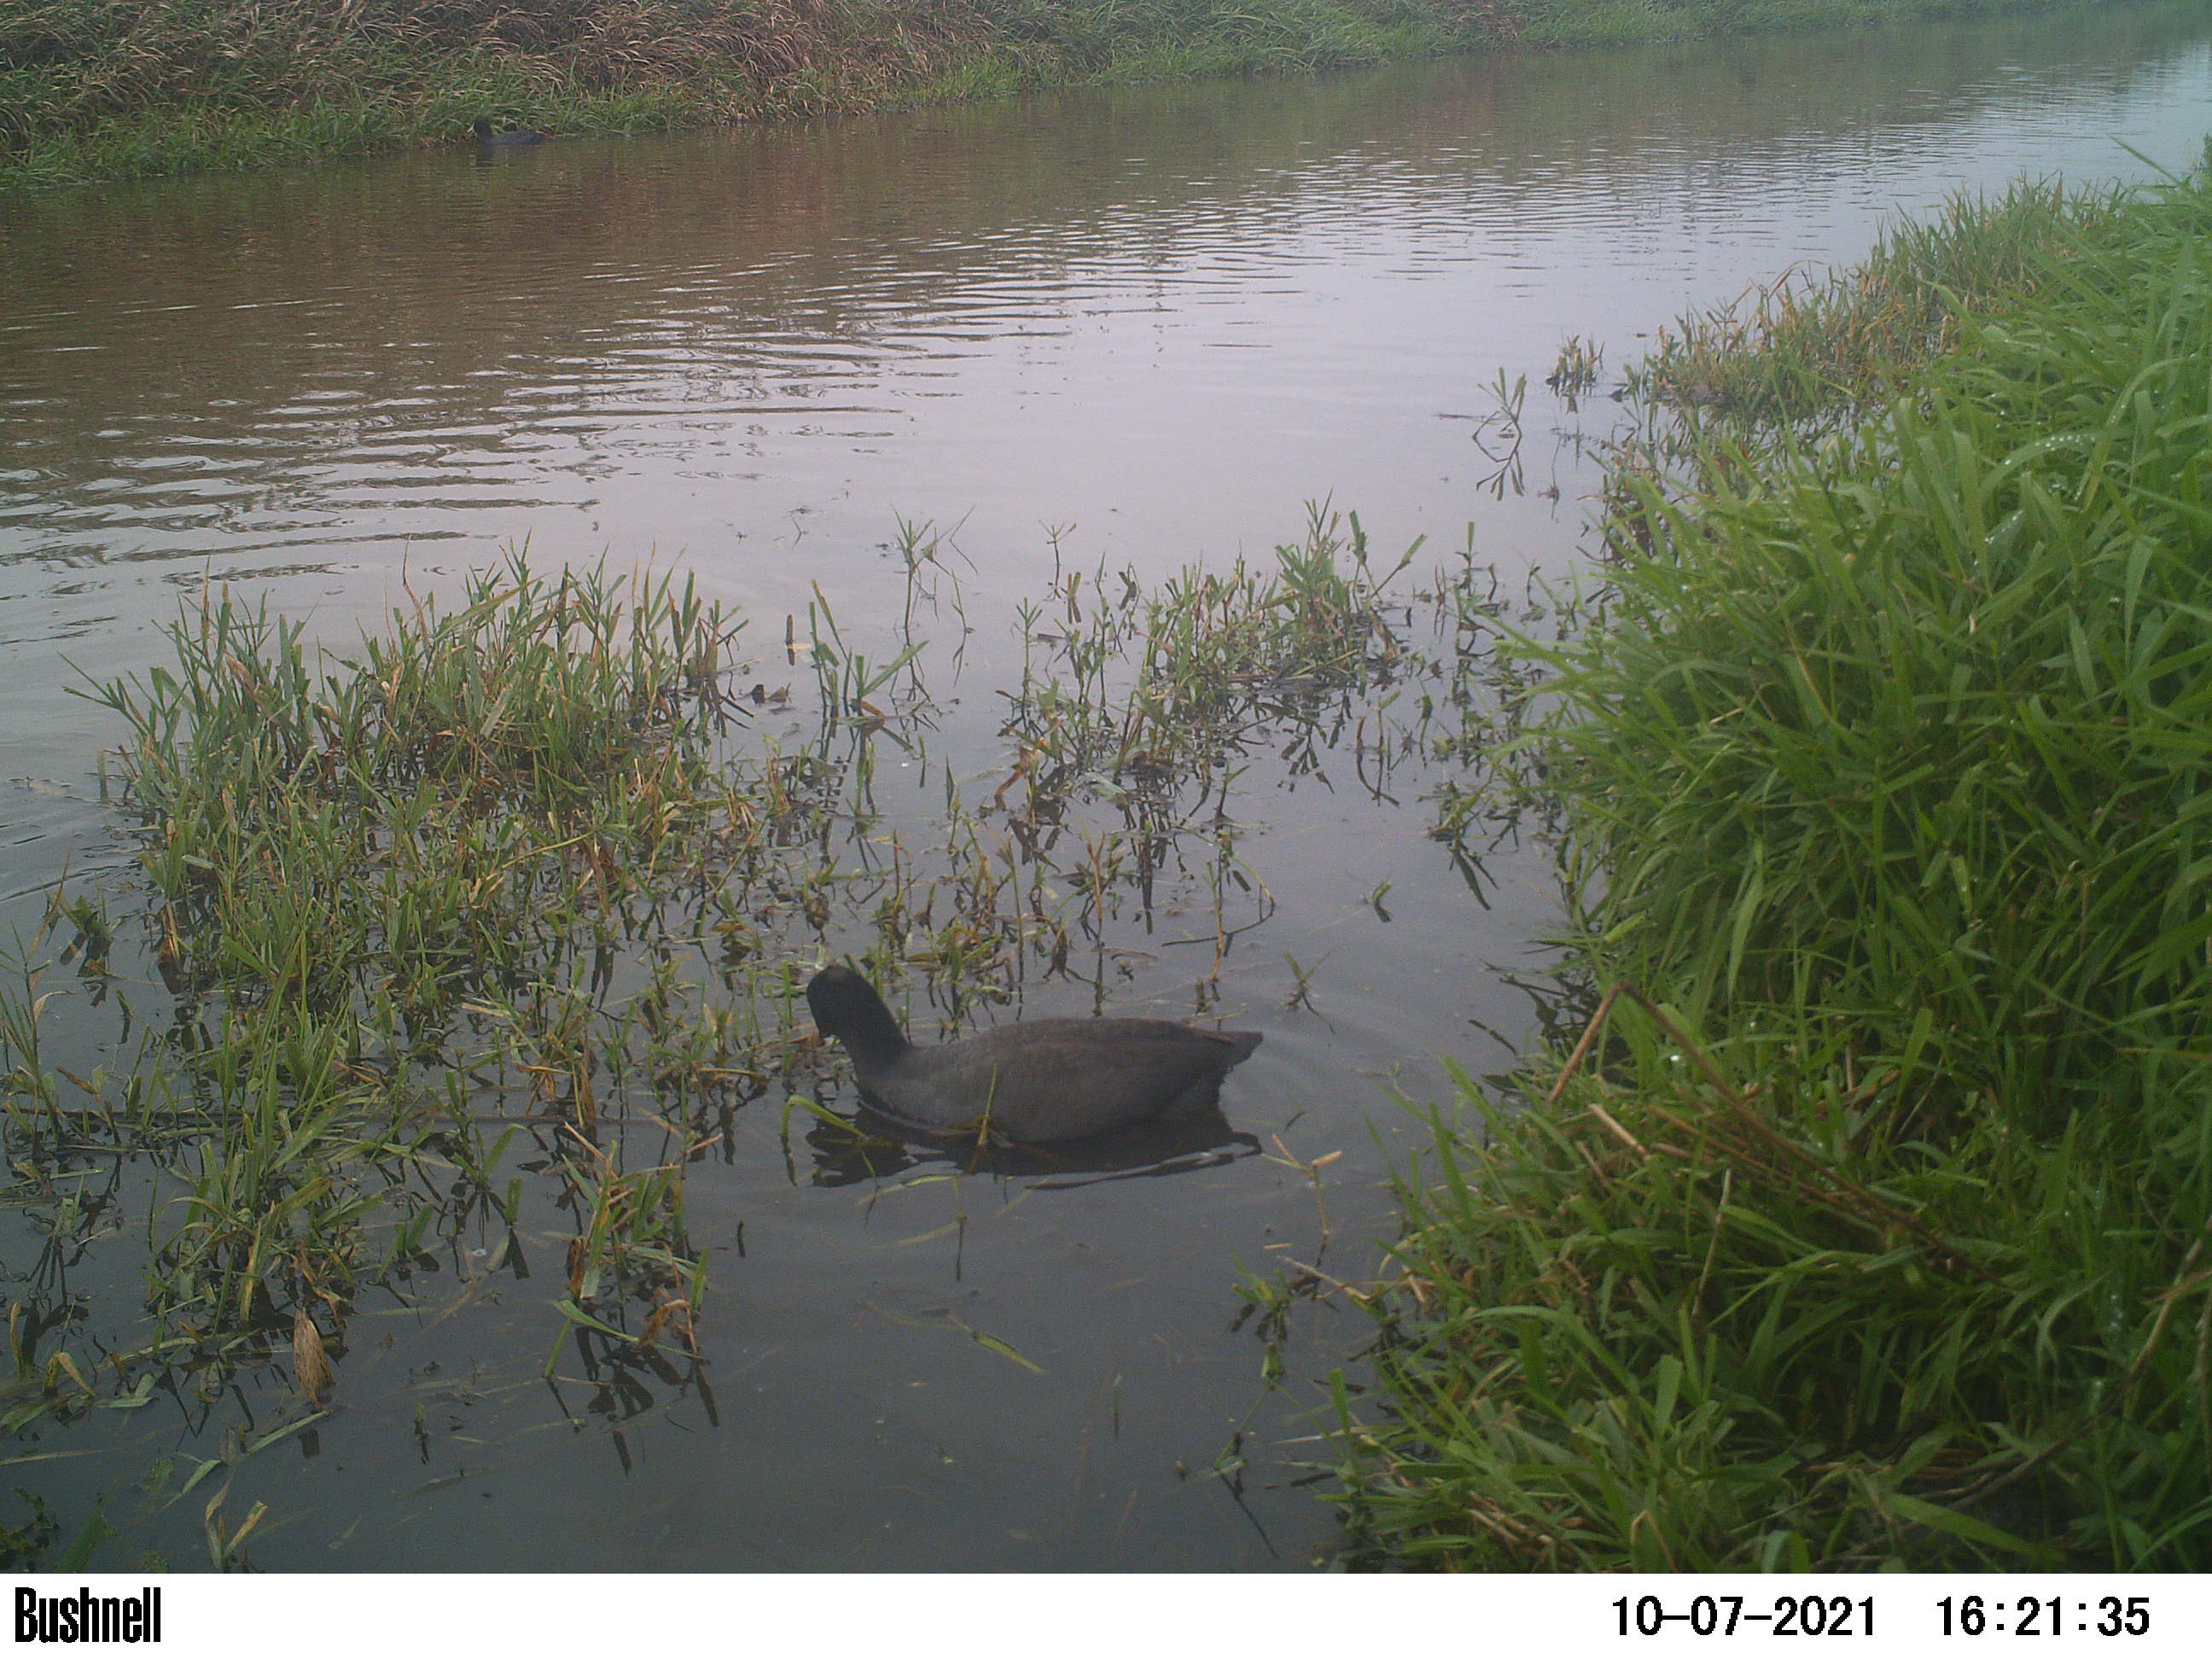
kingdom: Animalia
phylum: Chordata
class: Aves
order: Gruiformes
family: Rallidae
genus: Fulica
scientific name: Fulica atra
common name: Eurasian coot
